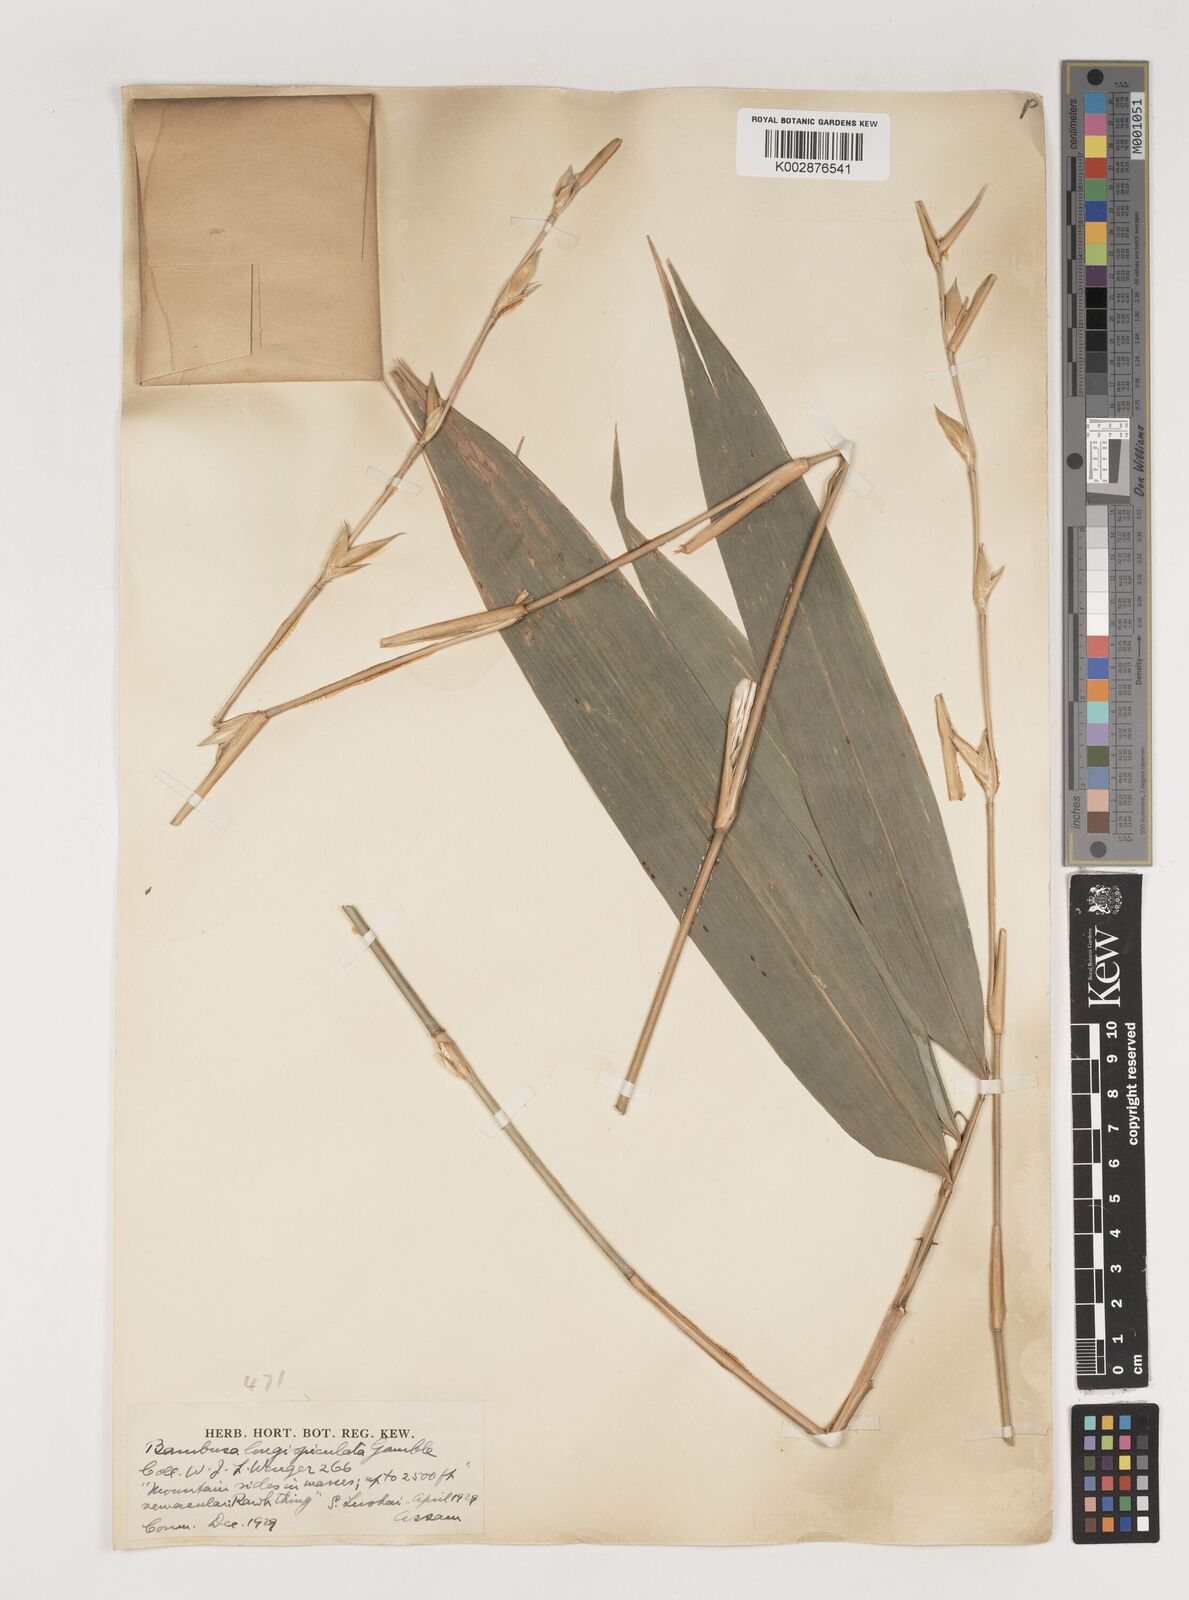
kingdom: Plantae
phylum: Tracheophyta
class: Liliopsida
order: Poales
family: Poaceae
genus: Bambusa
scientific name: Bambusa longispiculata
